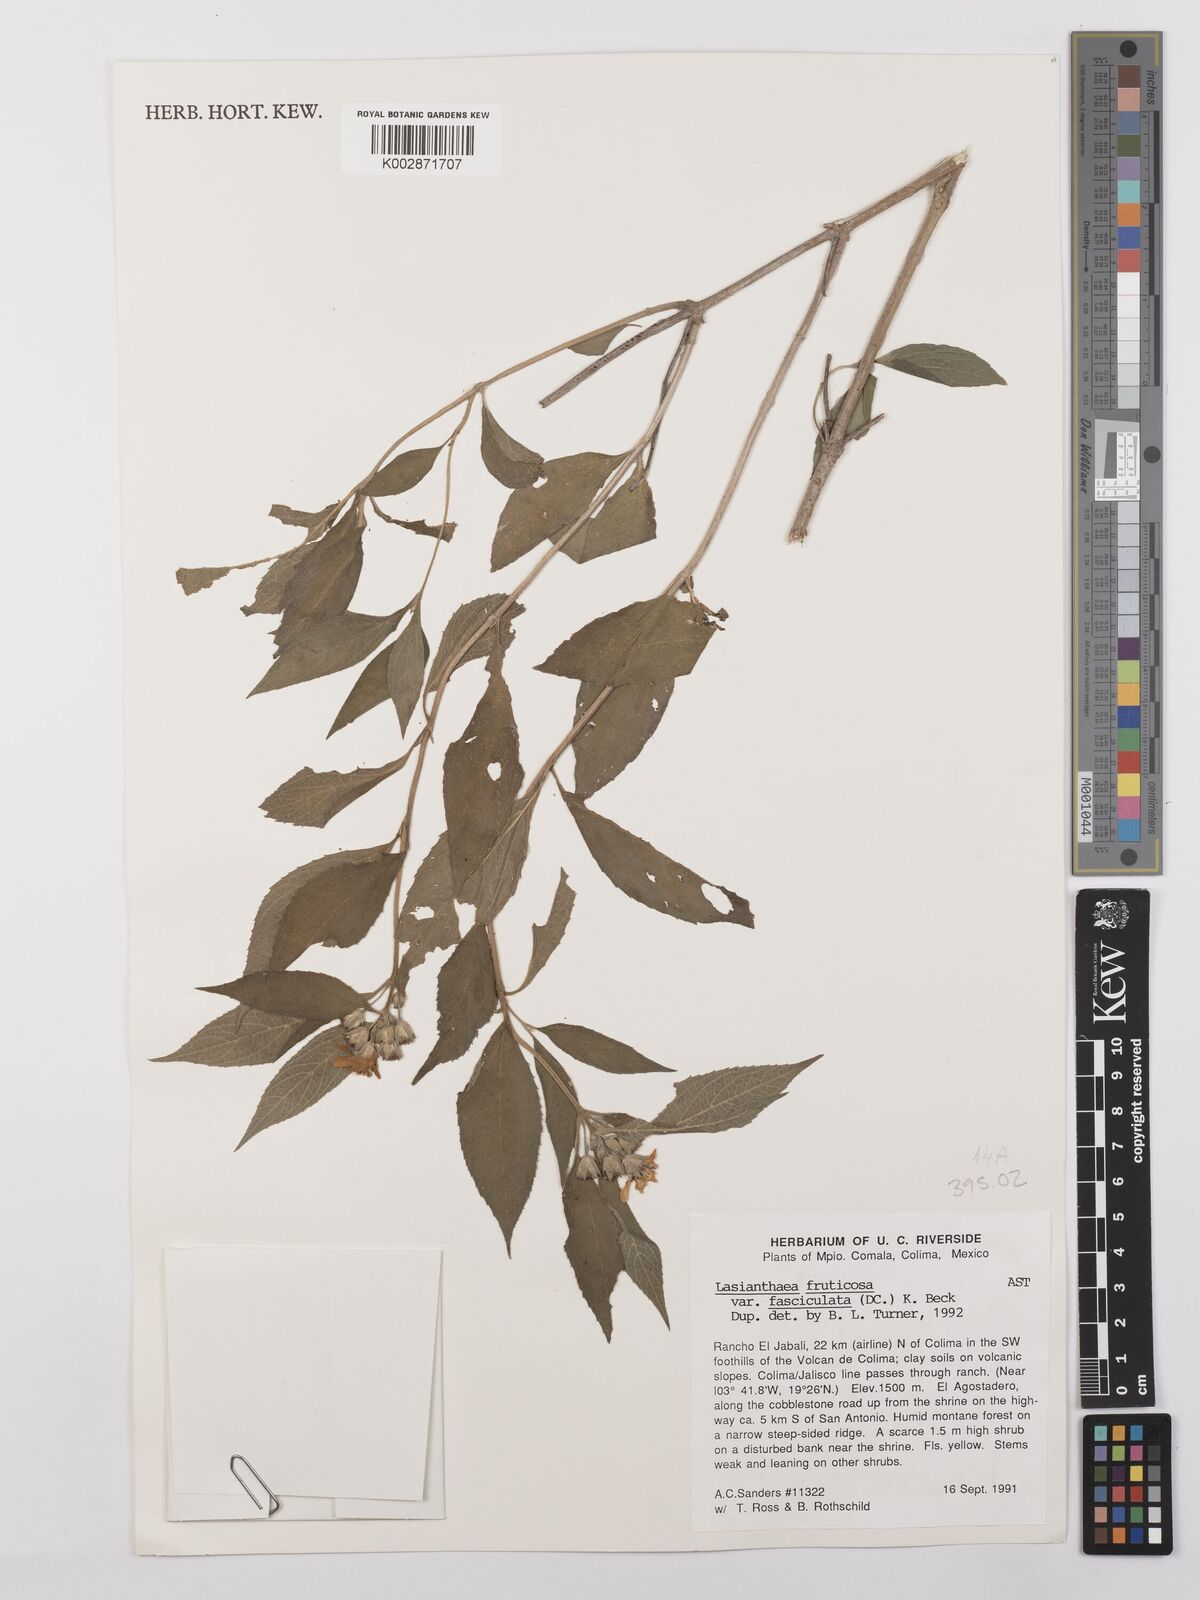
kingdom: Plantae
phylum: Tracheophyta
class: Magnoliopsida
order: Asterales
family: Asteraceae
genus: Lasianthaea
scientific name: Lasianthaea fruticosa
